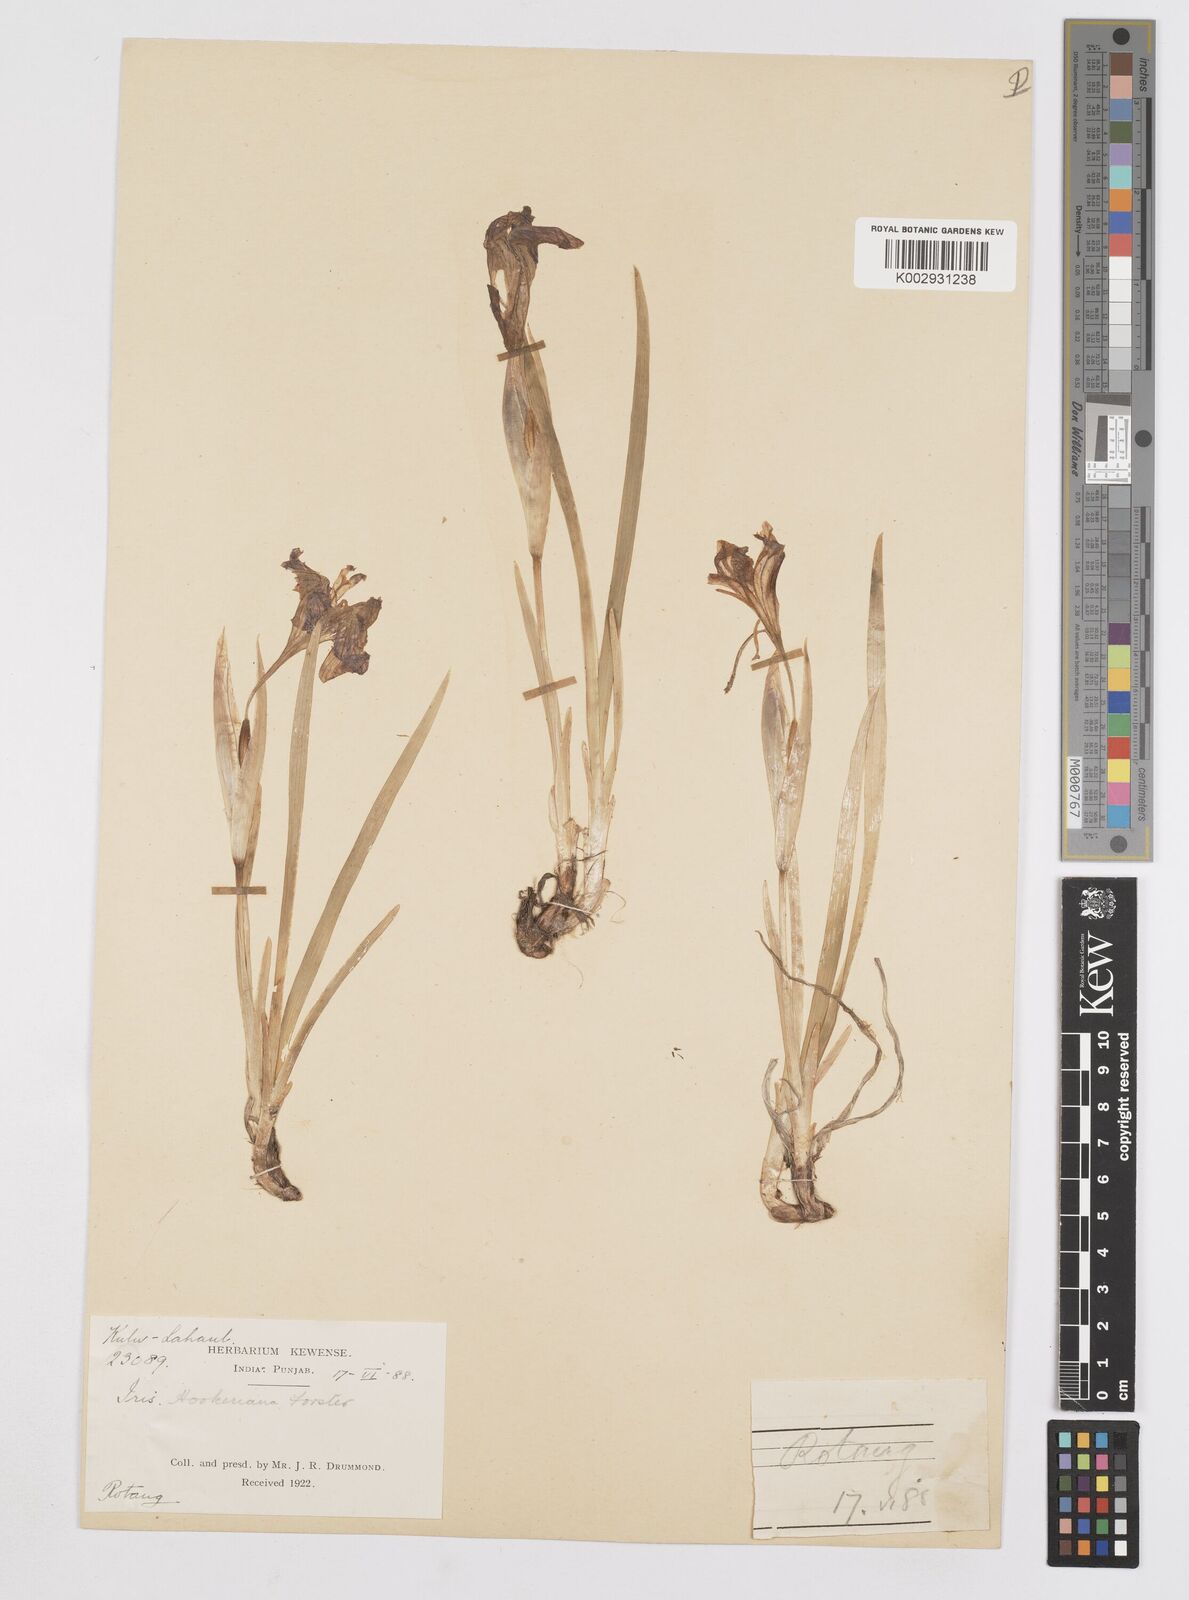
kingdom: Plantae
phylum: Tracheophyta
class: Liliopsida
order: Asparagales
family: Iridaceae
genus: Iris
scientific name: Iris hookeriana
